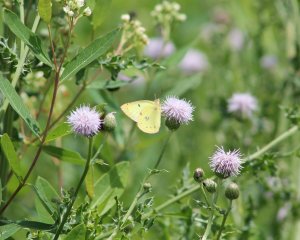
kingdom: Animalia
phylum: Arthropoda
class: Insecta
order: Lepidoptera
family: Pieridae
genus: Colias
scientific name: Colias philodice
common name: Clouded Sulphur
